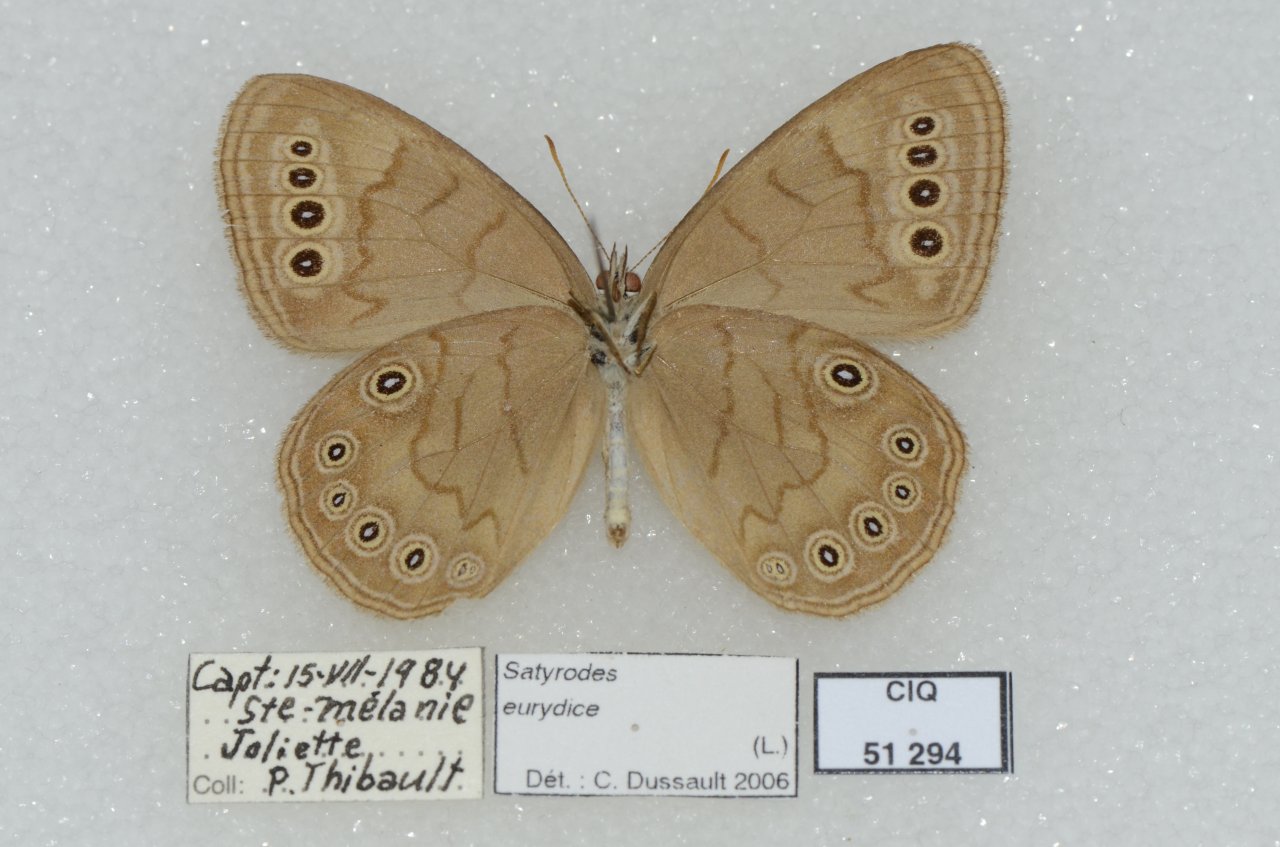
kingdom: Animalia
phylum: Arthropoda
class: Insecta
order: Lepidoptera
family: Nymphalidae
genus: Lethe
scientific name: Lethe eurydice
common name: Eyed Brown
